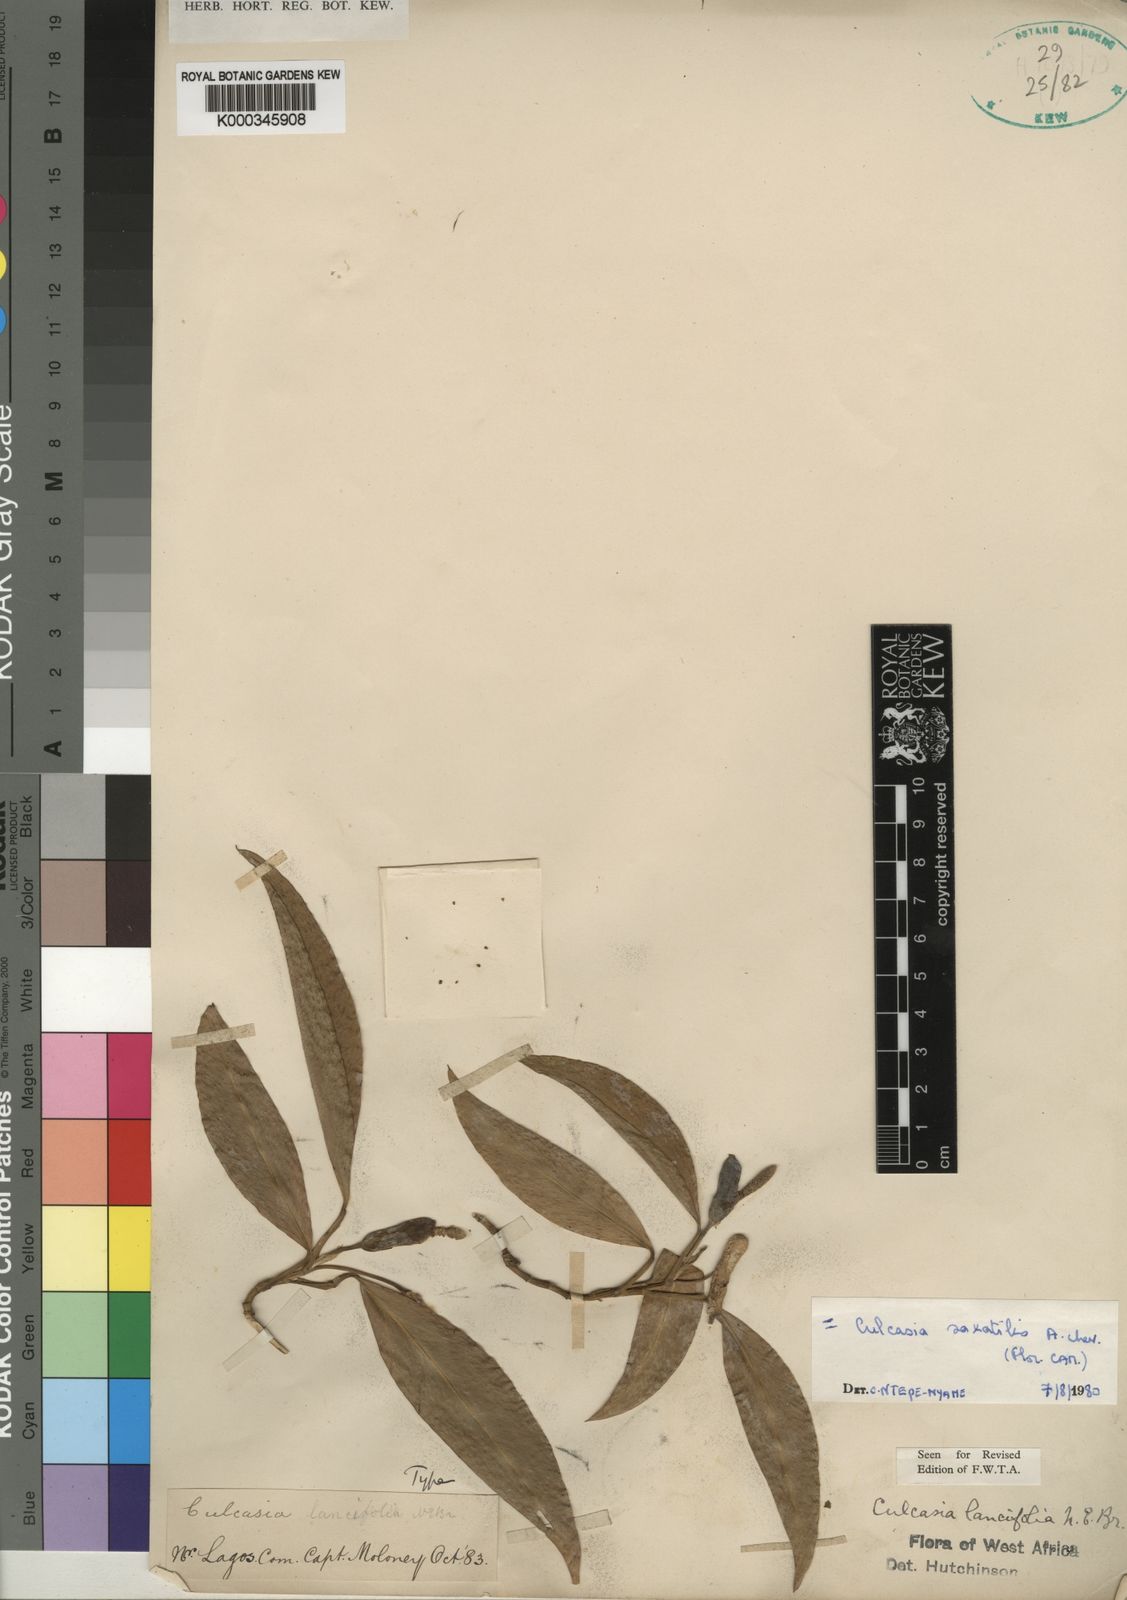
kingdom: Plantae
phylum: Tracheophyta
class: Liliopsida
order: Alismatales
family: Araceae
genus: Culcasia
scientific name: Culcasia scandens
